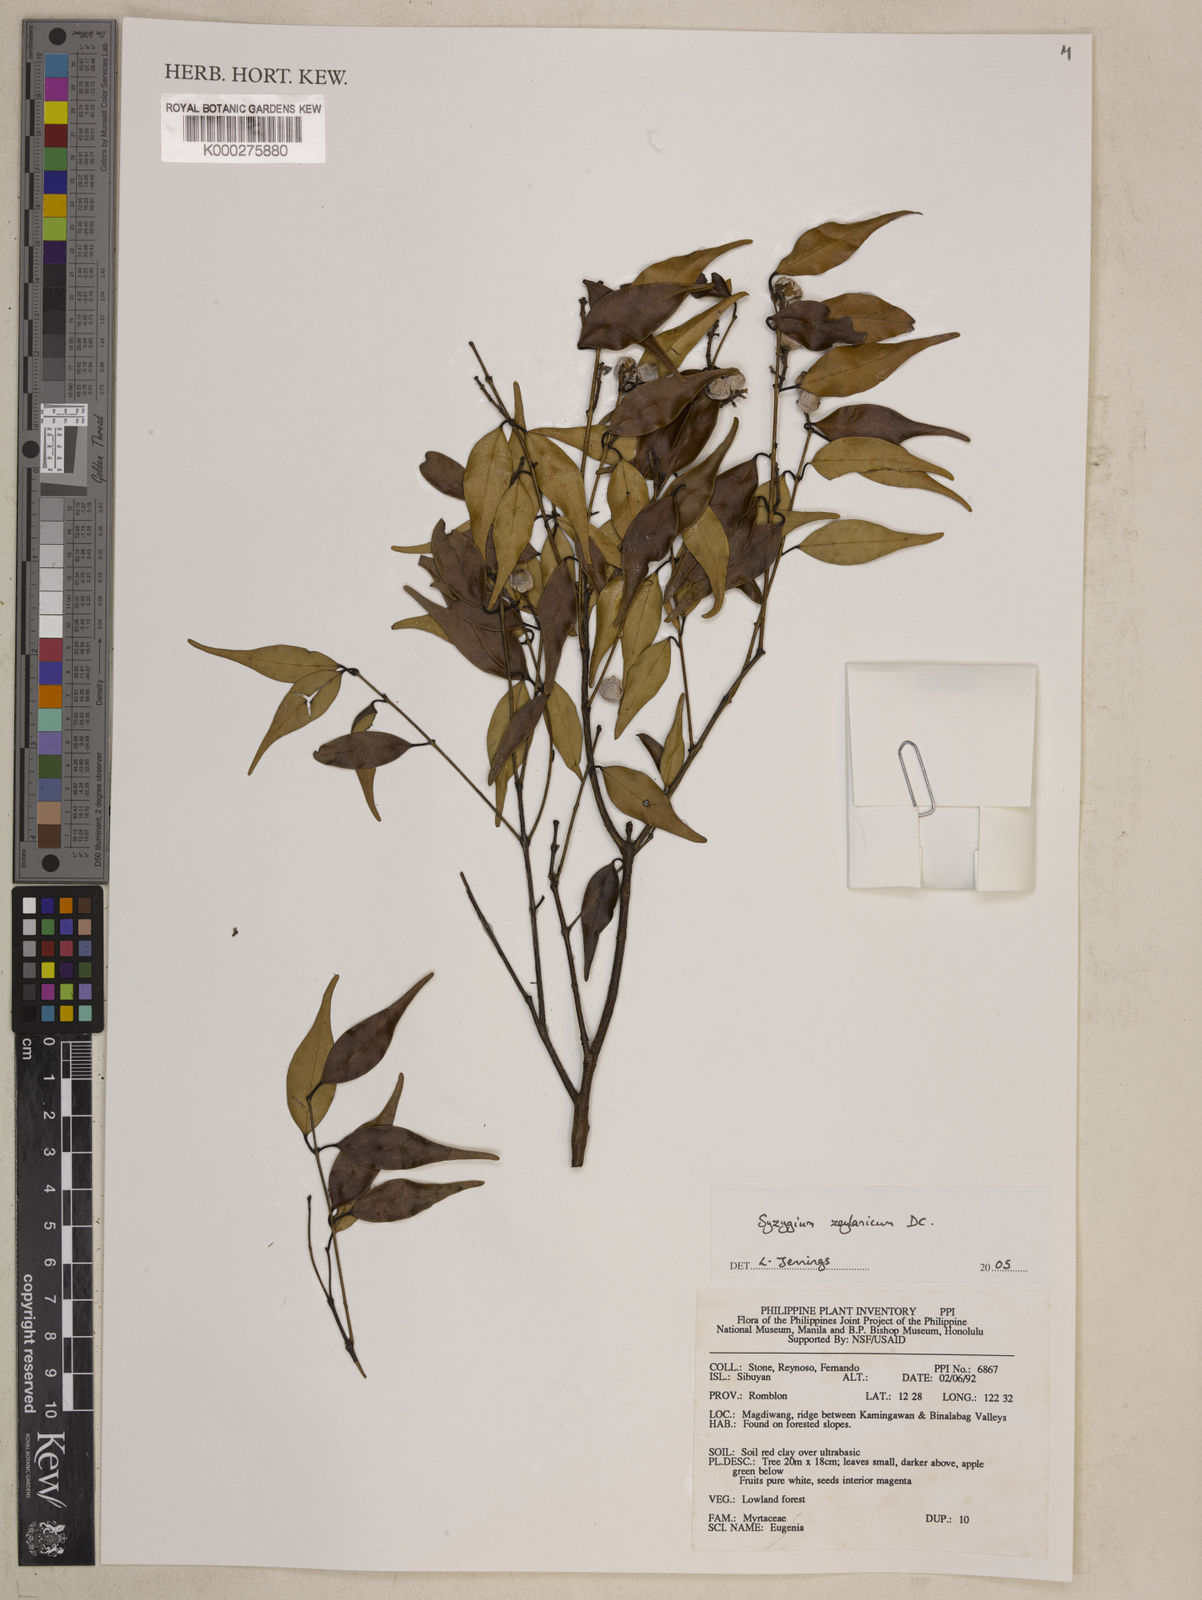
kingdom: Plantae
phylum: Tracheophyta
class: Magnoliopsida
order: Myrtales
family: Myrtaceae
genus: Syzygium
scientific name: Syzygium zeylanicum
